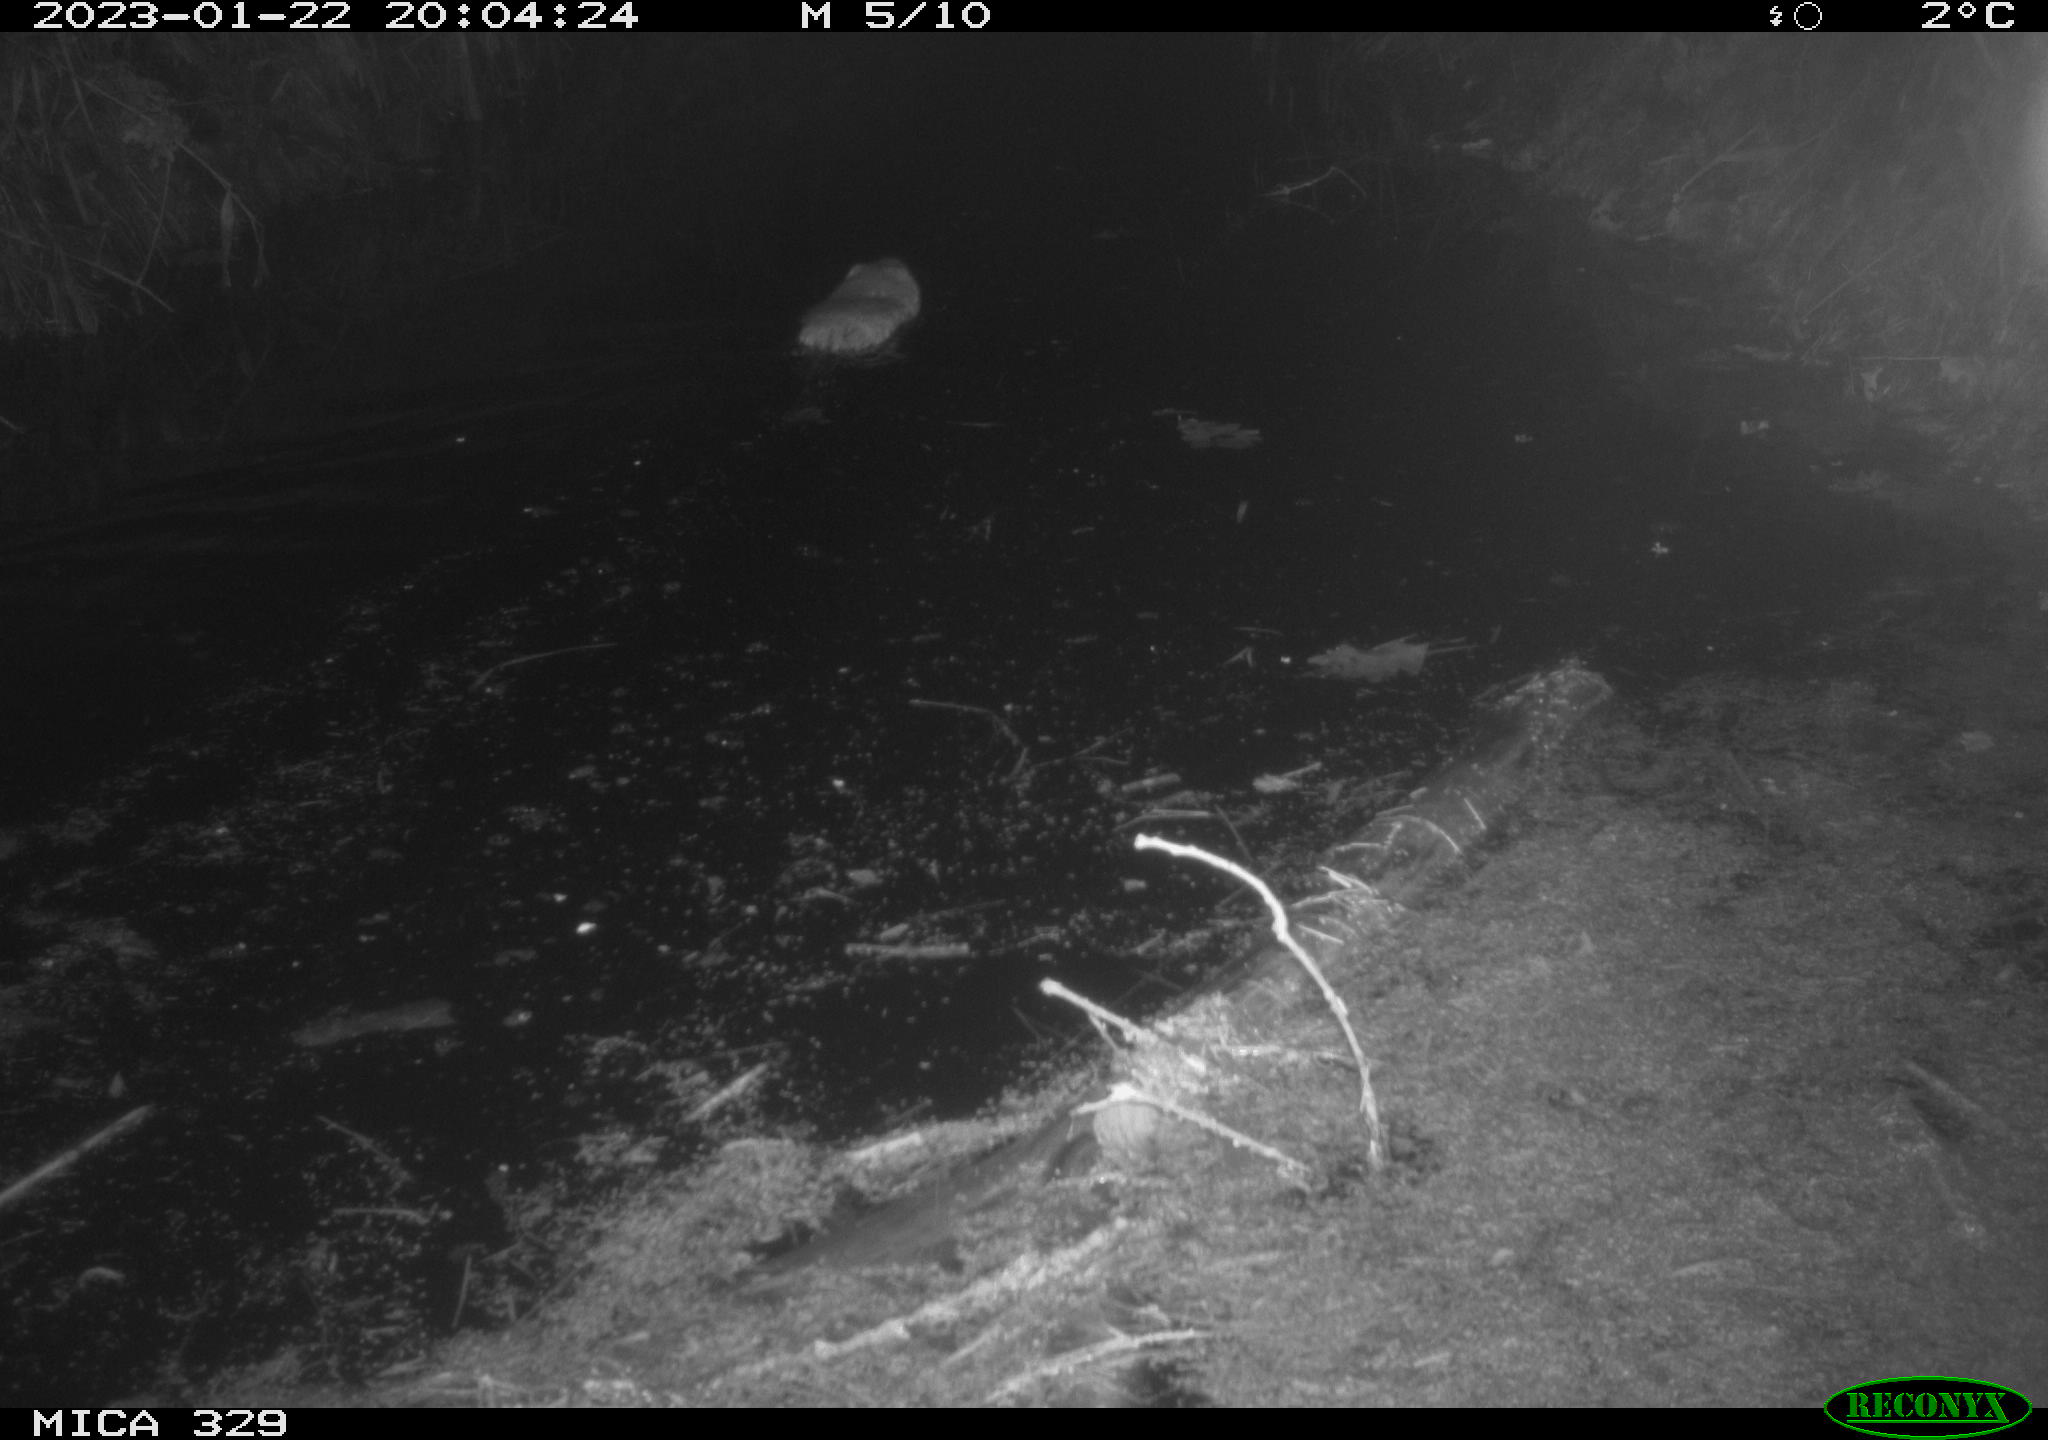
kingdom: Animalia
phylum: Chordata
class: Mammalia
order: Rodentia
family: Cricetidae
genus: Ondatra
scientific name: Ondatra zibethicus
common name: Muskrat
